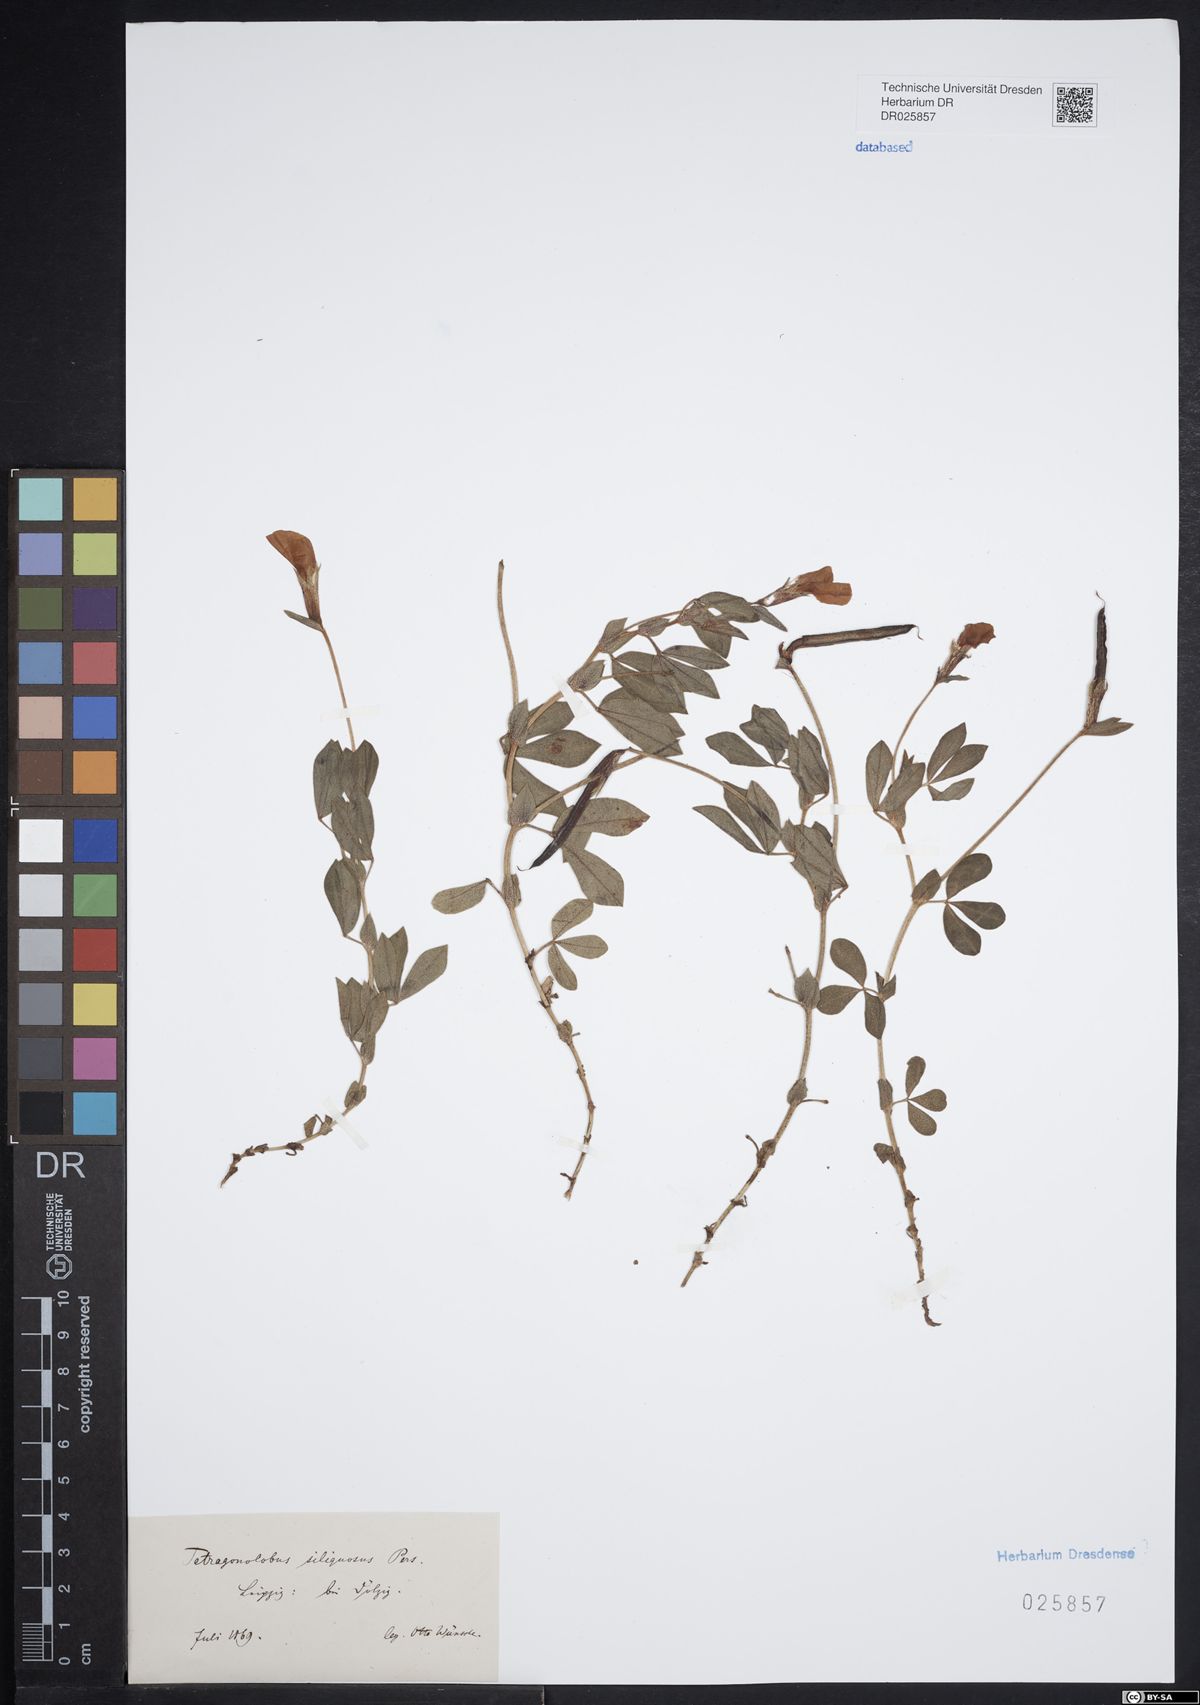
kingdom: Plantae
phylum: Tracheophyta
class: Magnoliopsida
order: Fabales
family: Fabaceae
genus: Lotus
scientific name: Lotus maritimus
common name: Dragon's-teeth
